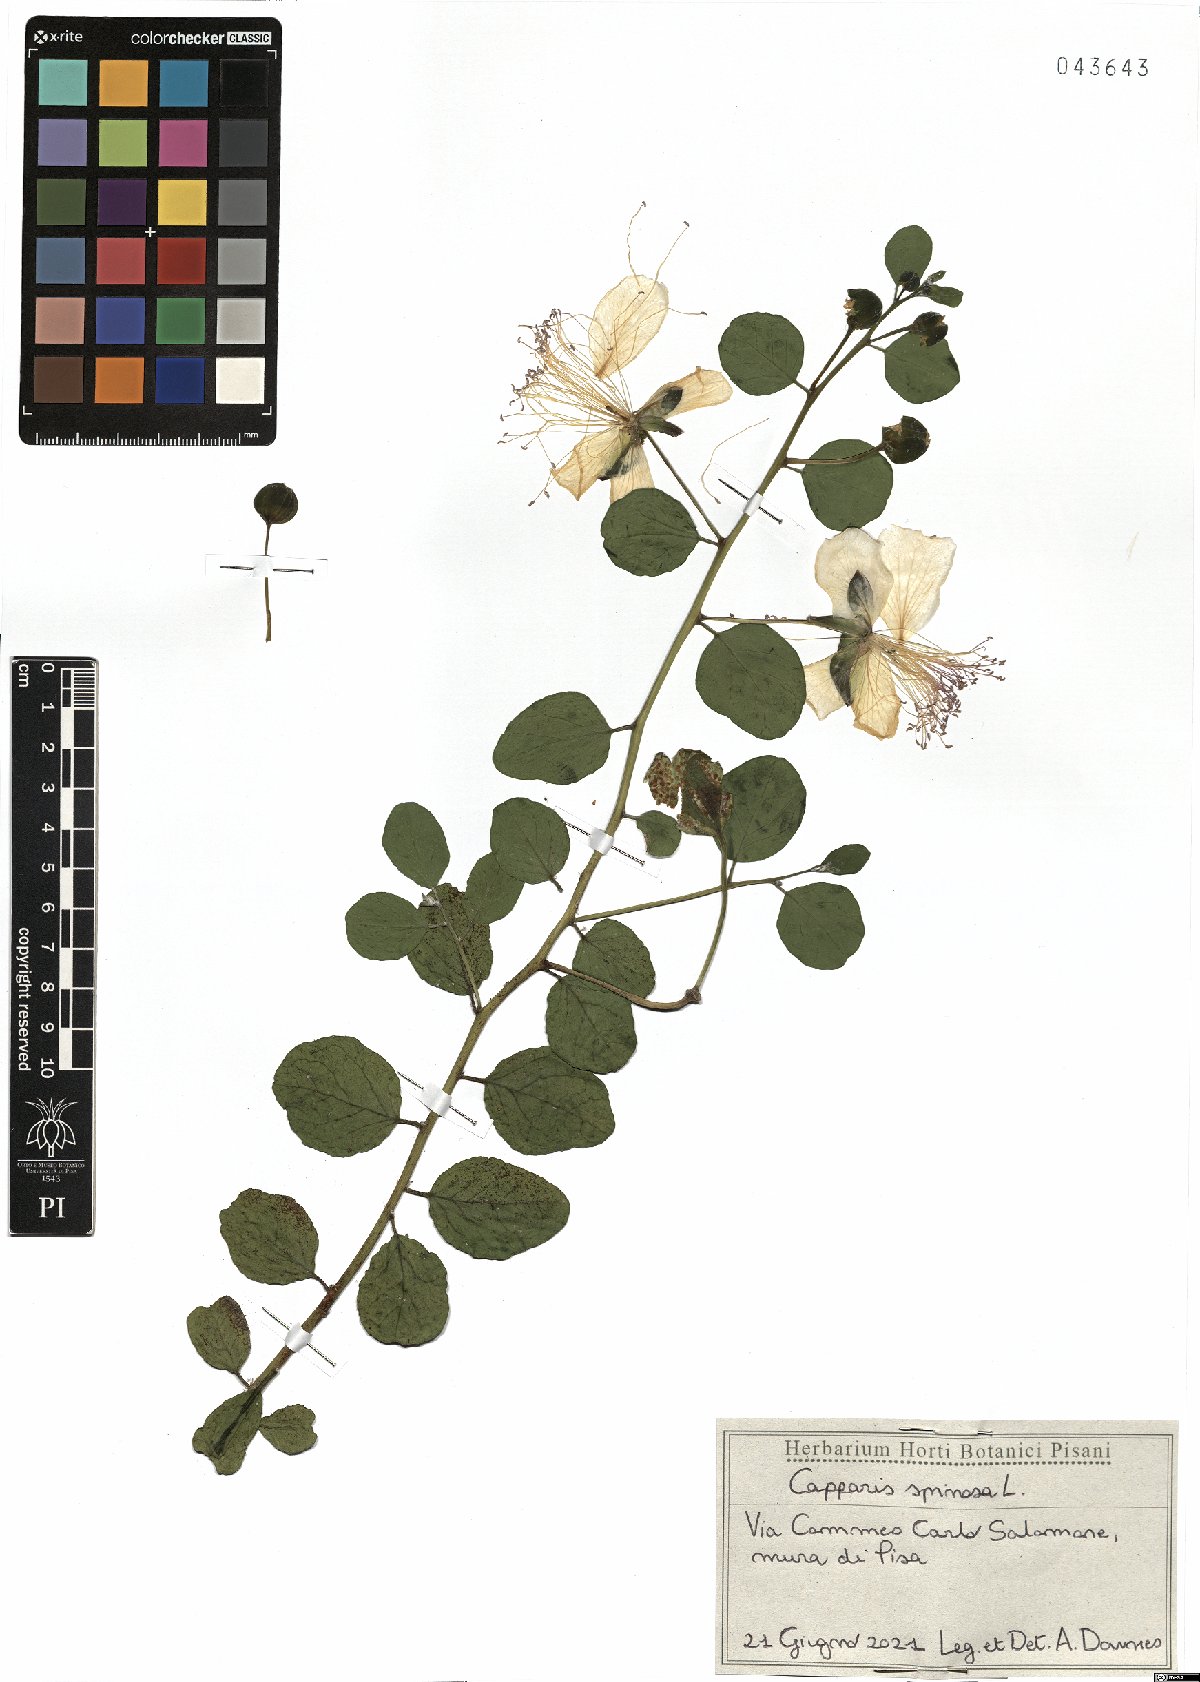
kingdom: Plantae
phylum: Tracheophyta
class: Magnoliopsida
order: Brassicales
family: Capparaceae
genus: Capparis
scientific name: Capparis spinosa
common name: Caper
